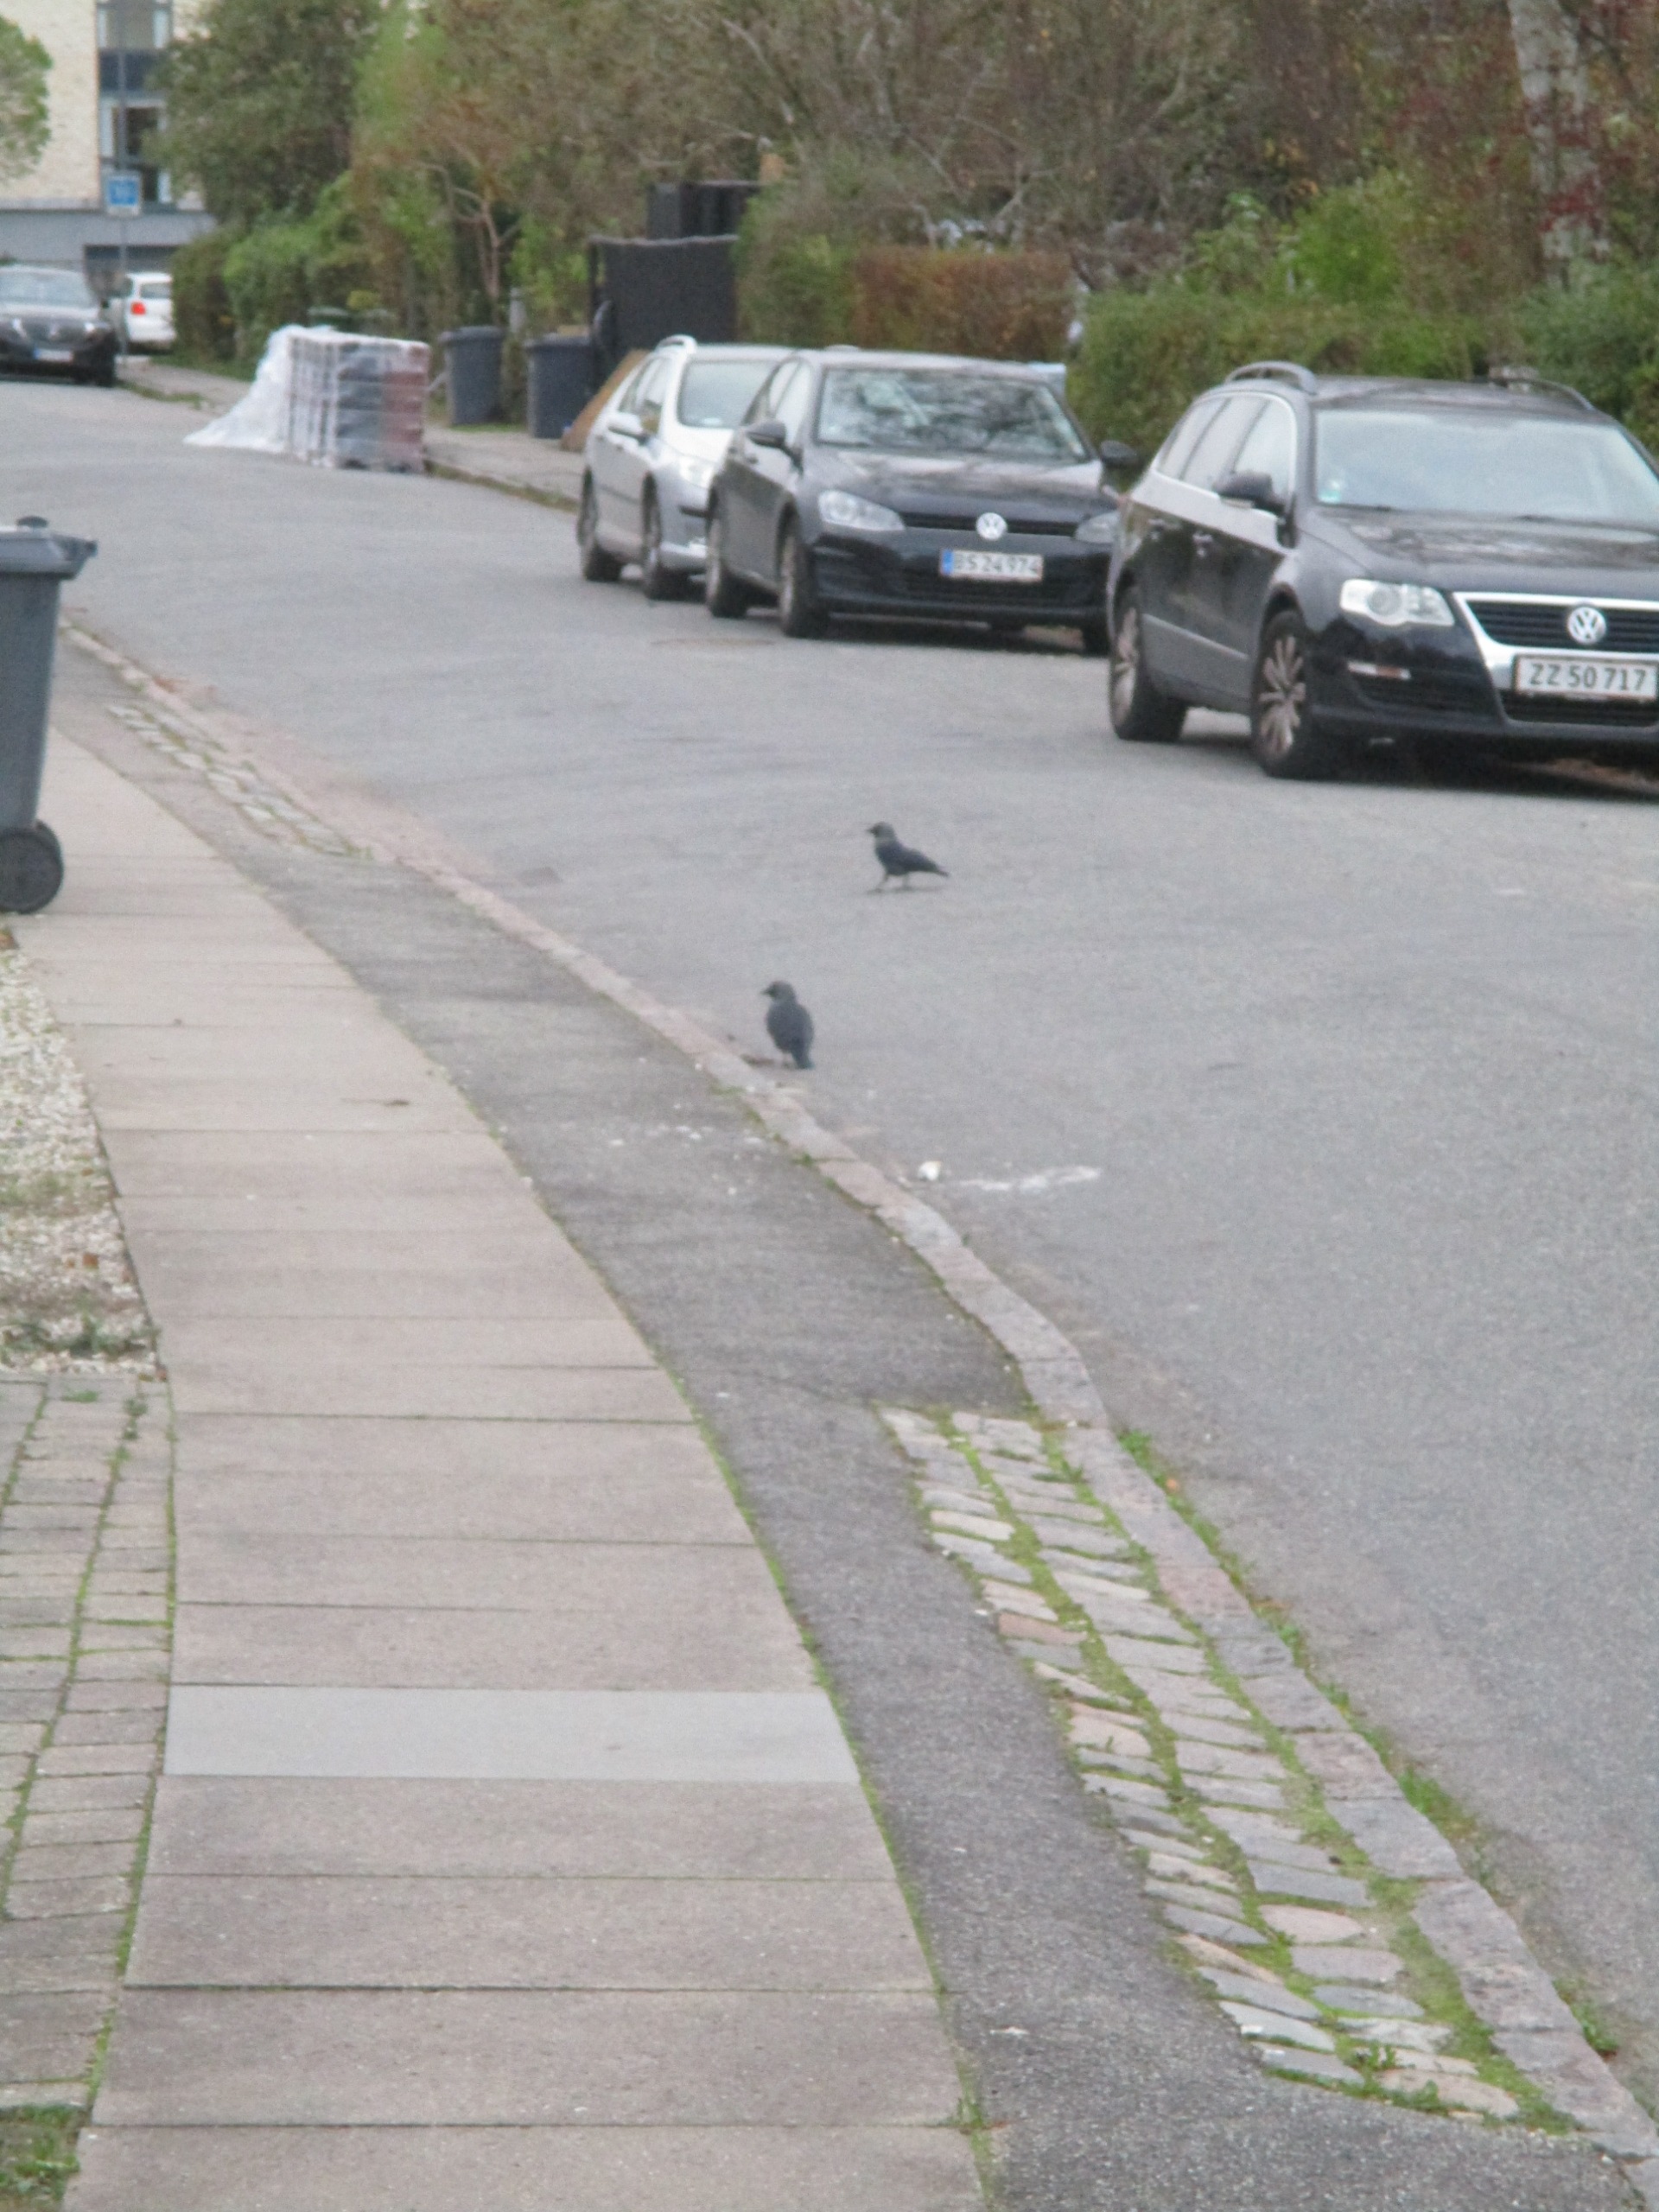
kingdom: Animalia
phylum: Chordata
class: Aves
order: Passeriformes
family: Corvidae
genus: Coloeus
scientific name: Coloeus monedula
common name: Allike
